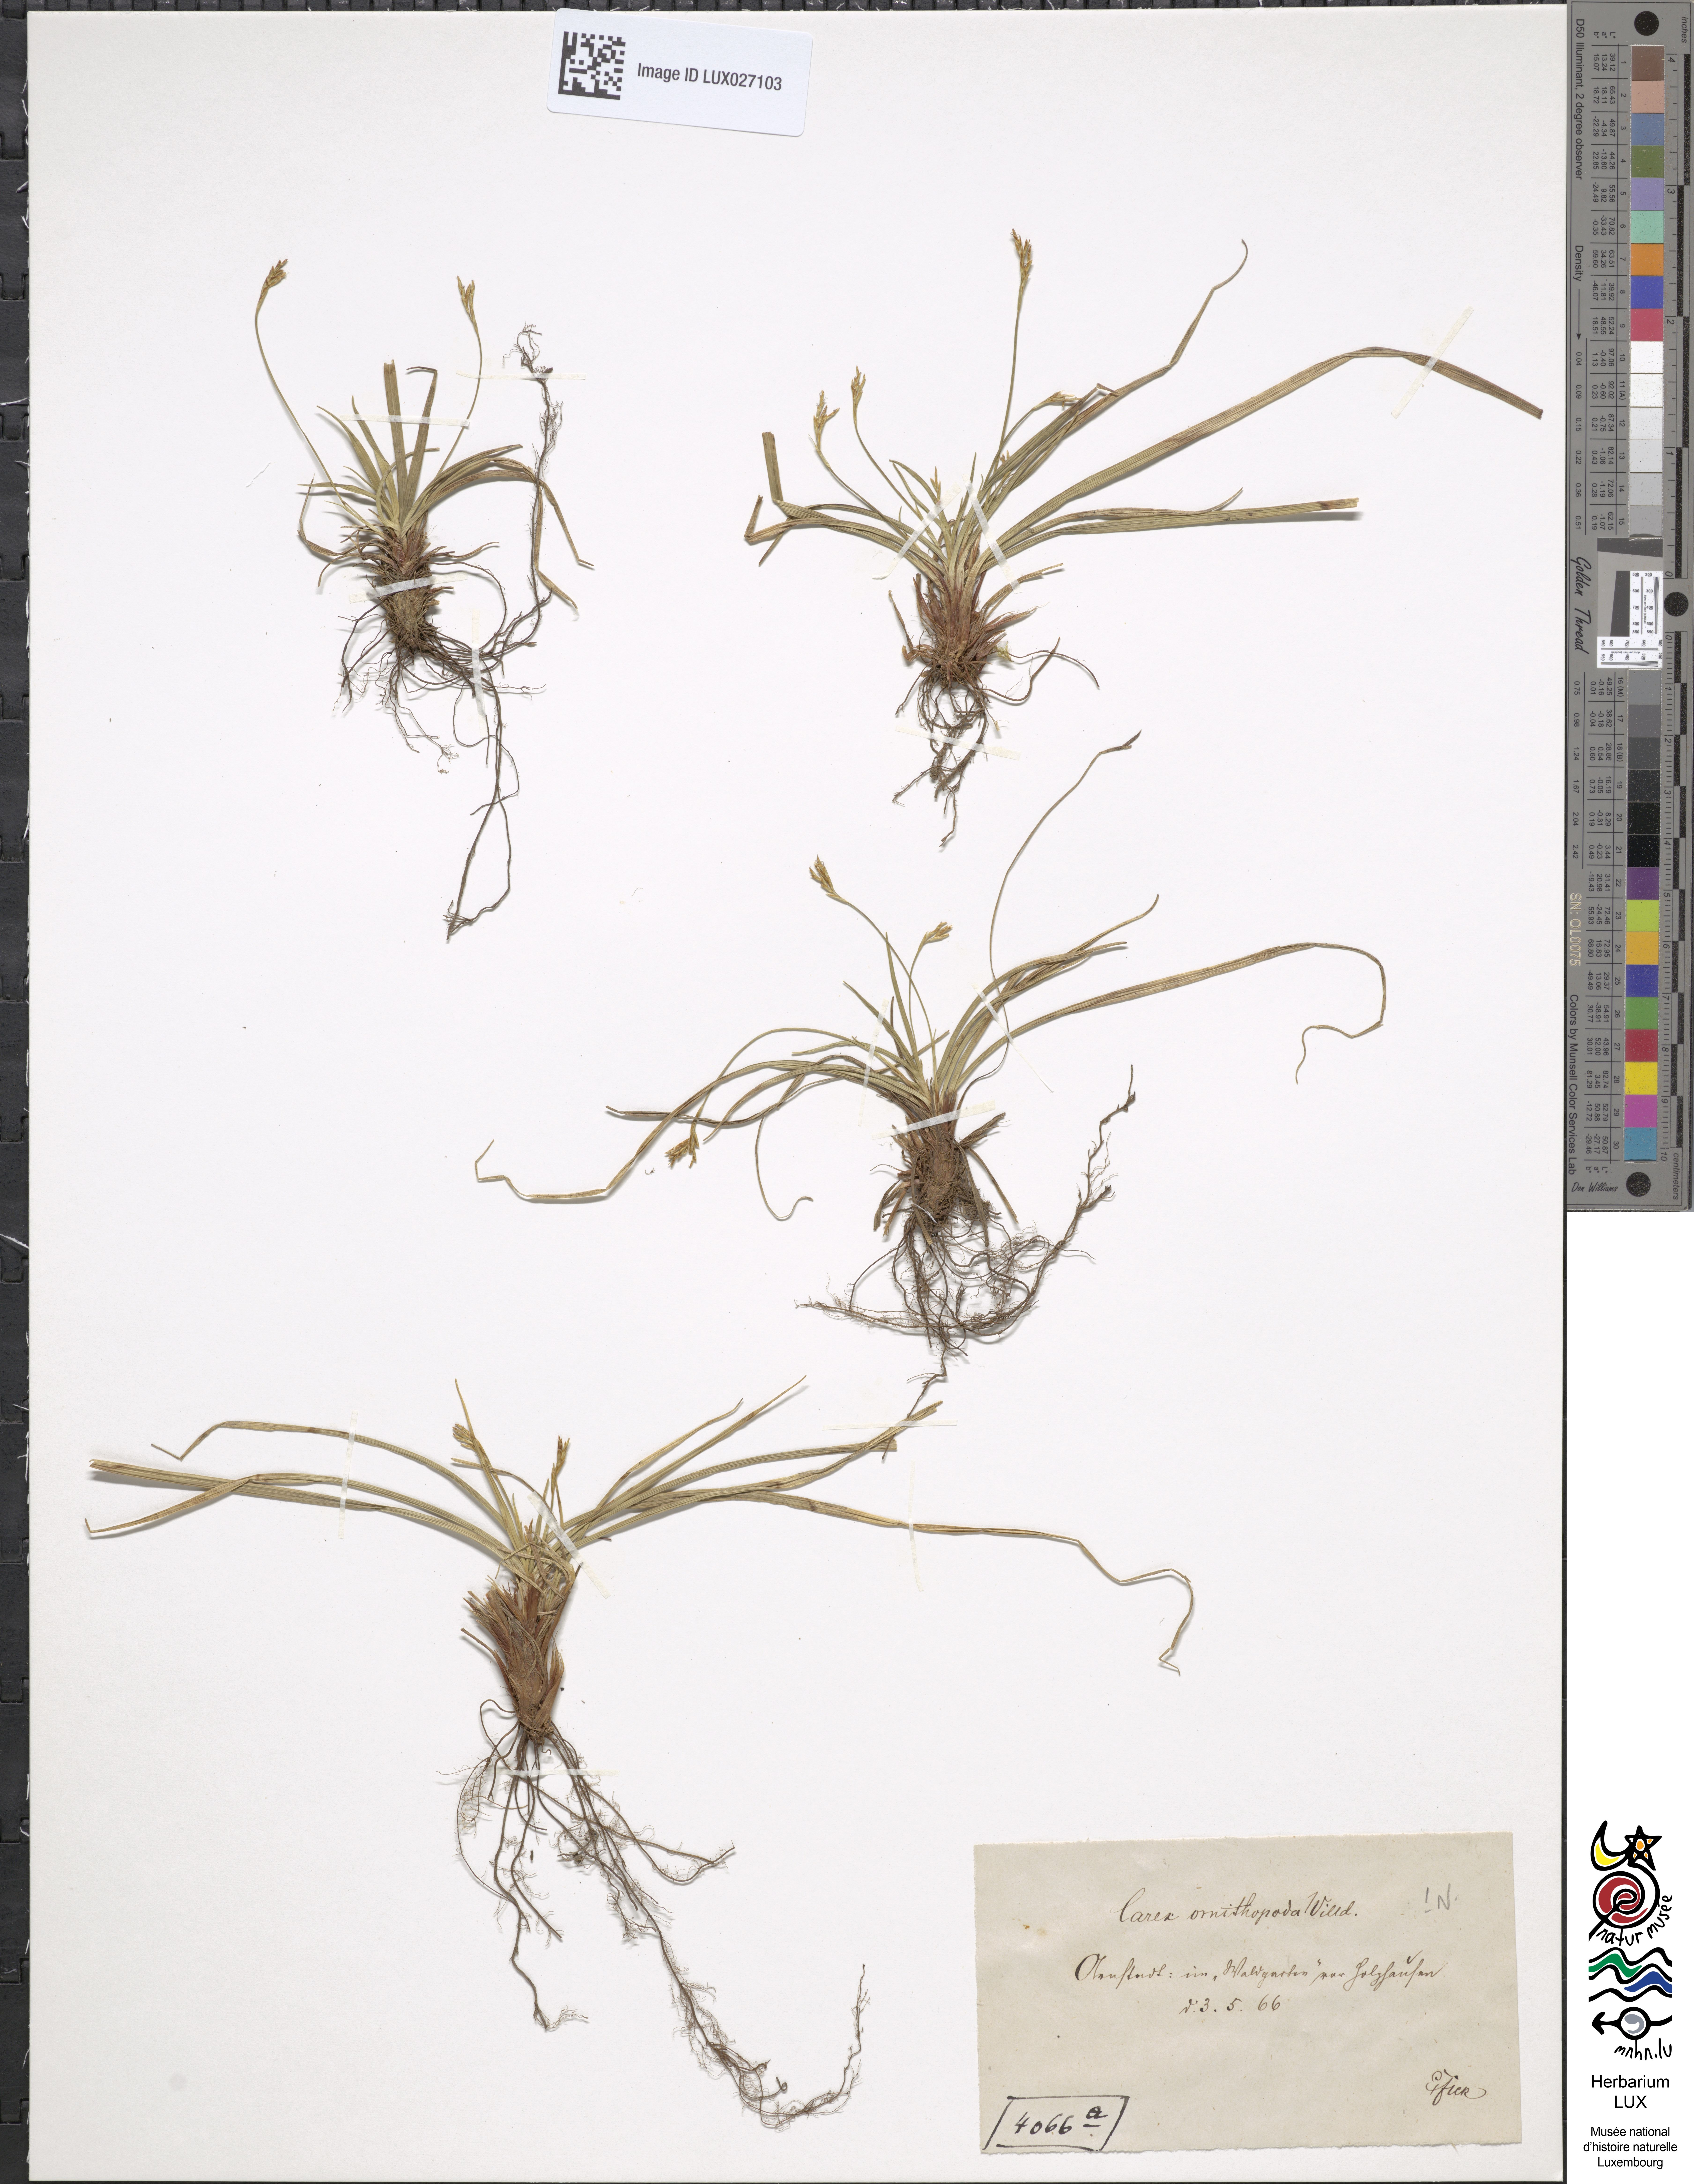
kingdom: Plantae
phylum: Tracheophyta
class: Liliopsida
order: Poales
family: Cyperaceae
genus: Carex
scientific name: Carex ornithopoda
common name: Bird's-foot sedge
